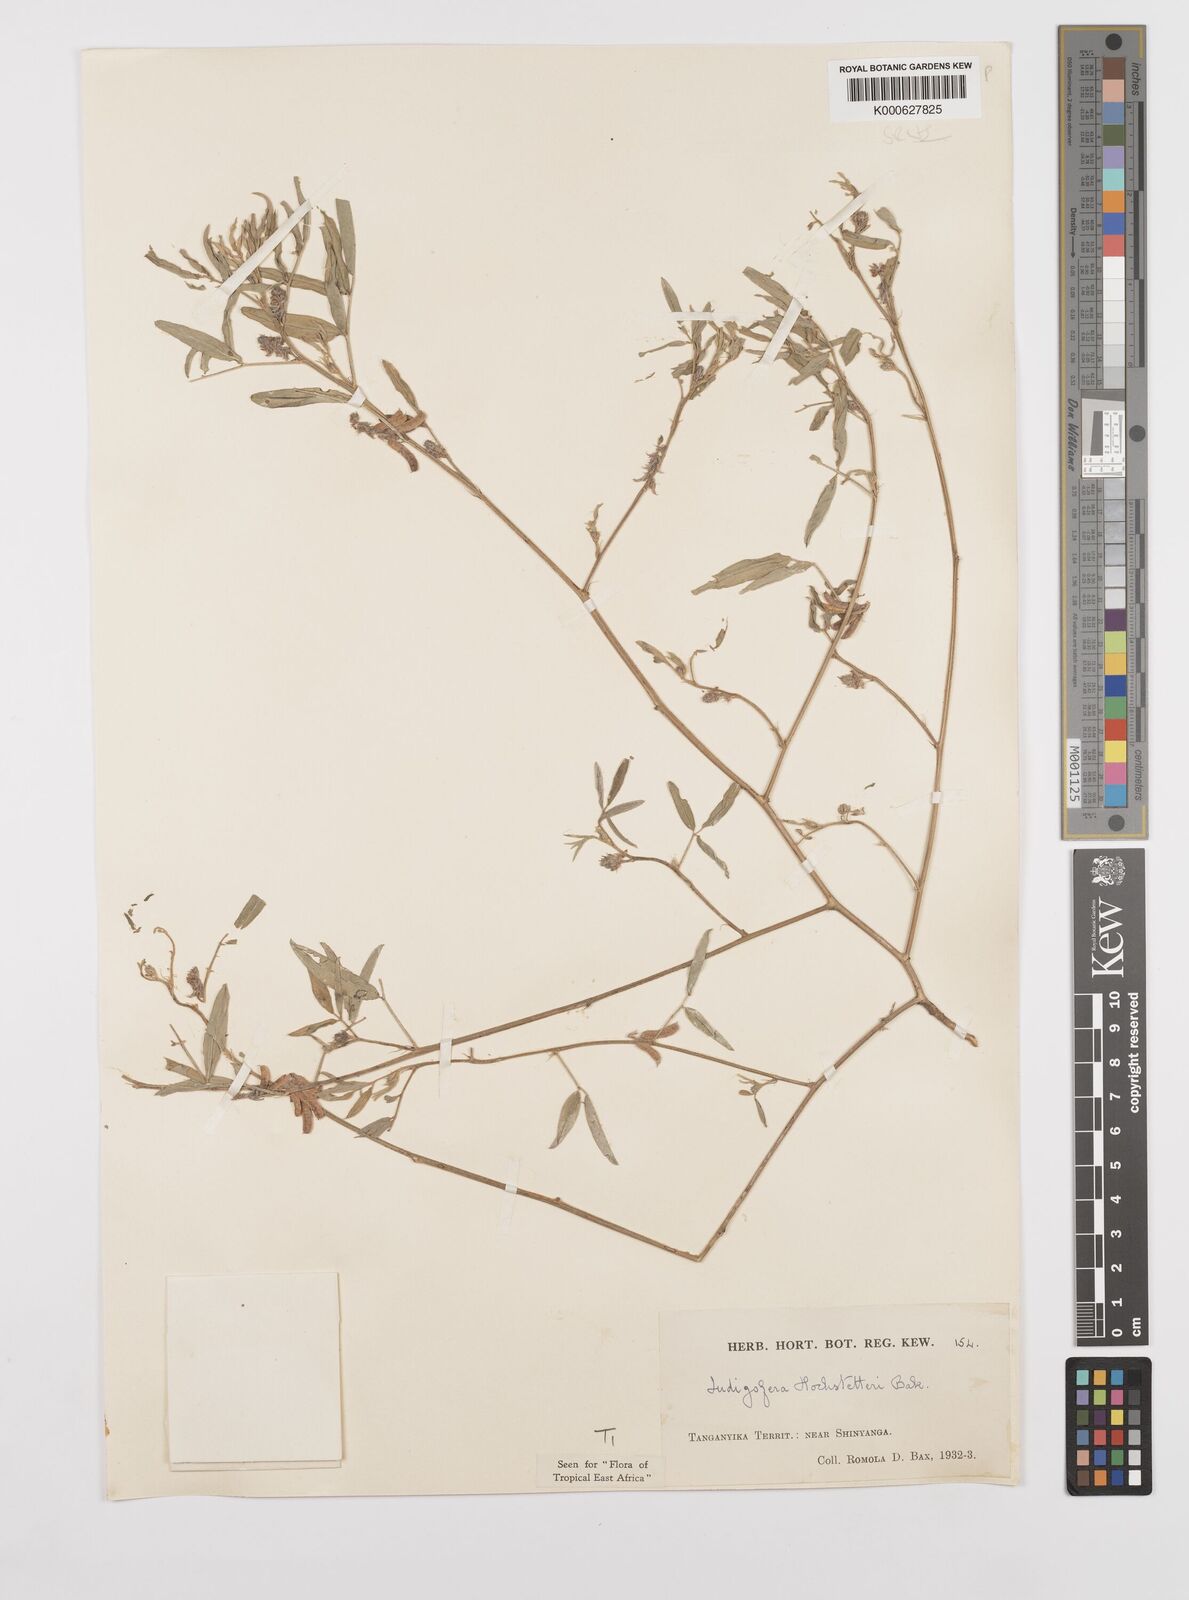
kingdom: Plantae
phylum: Tracheophyta
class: Magnoliopsida
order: Fabales
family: Fabaceae
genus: Indigofera
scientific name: Indigofera hochstetteri
